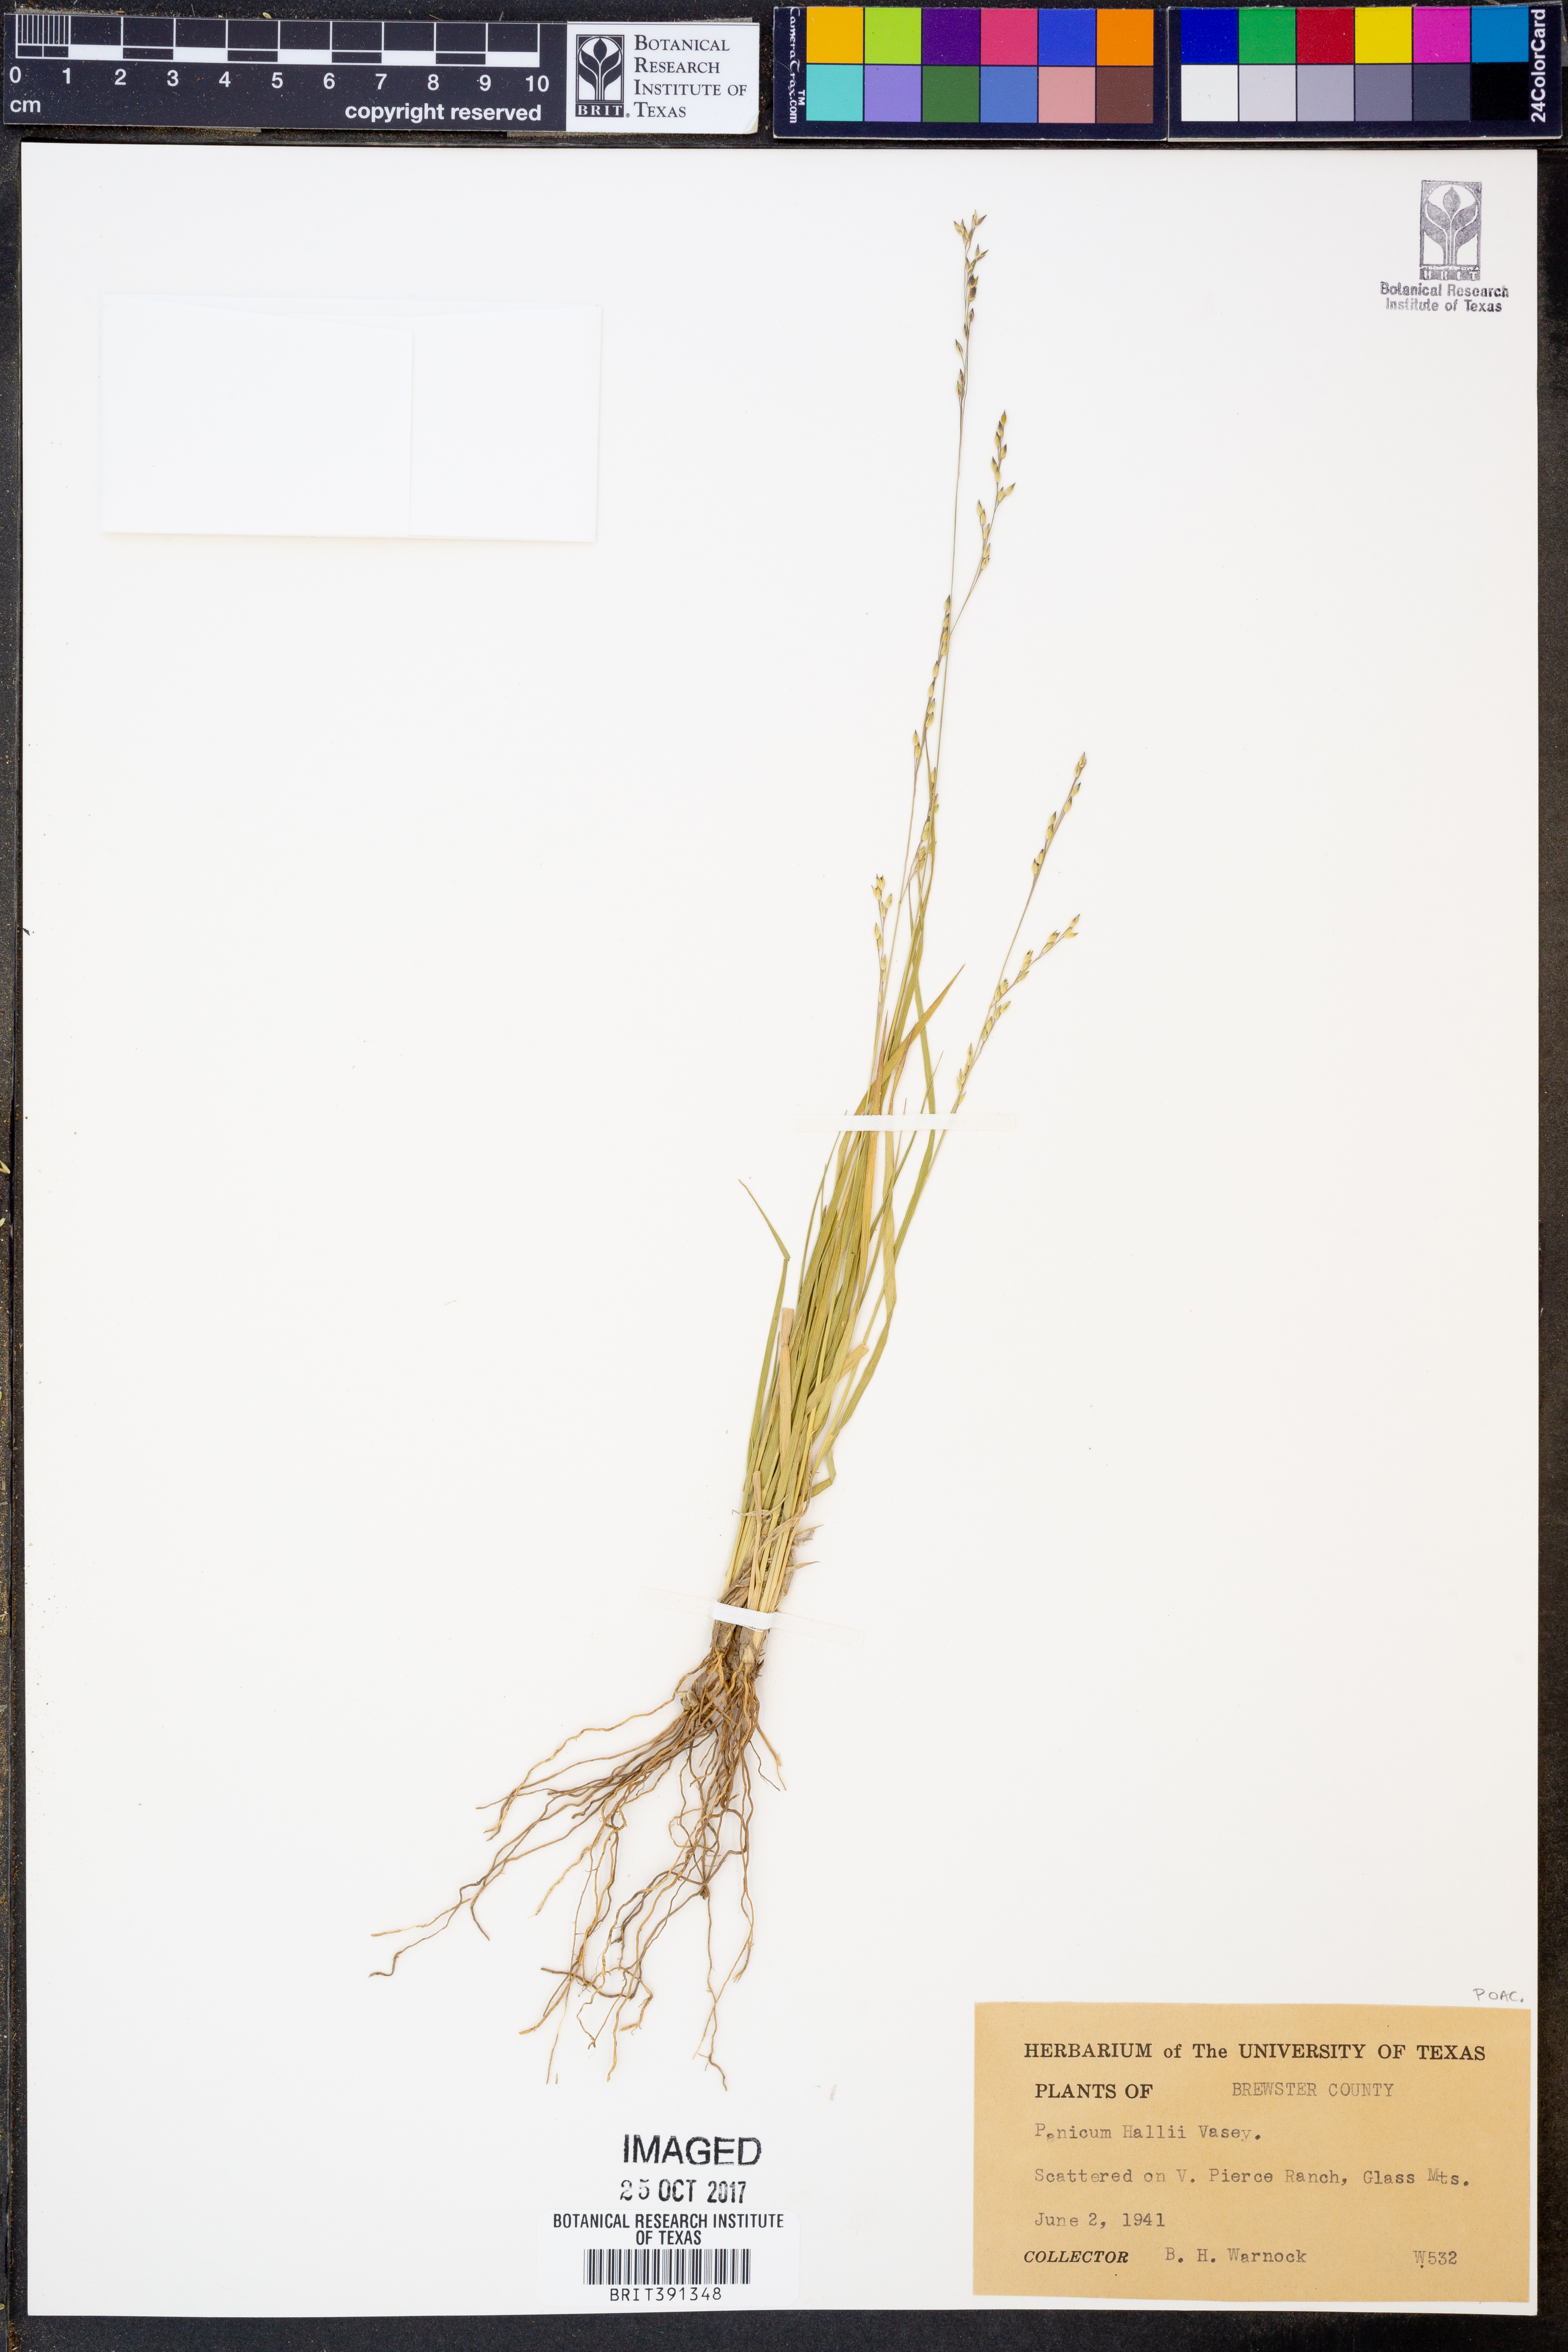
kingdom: Plantae
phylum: Tracheophyta
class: Liliopsida
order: Poales
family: Poaceae
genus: Panicum
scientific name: Panicum hallii
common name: Hall's witchgrass
